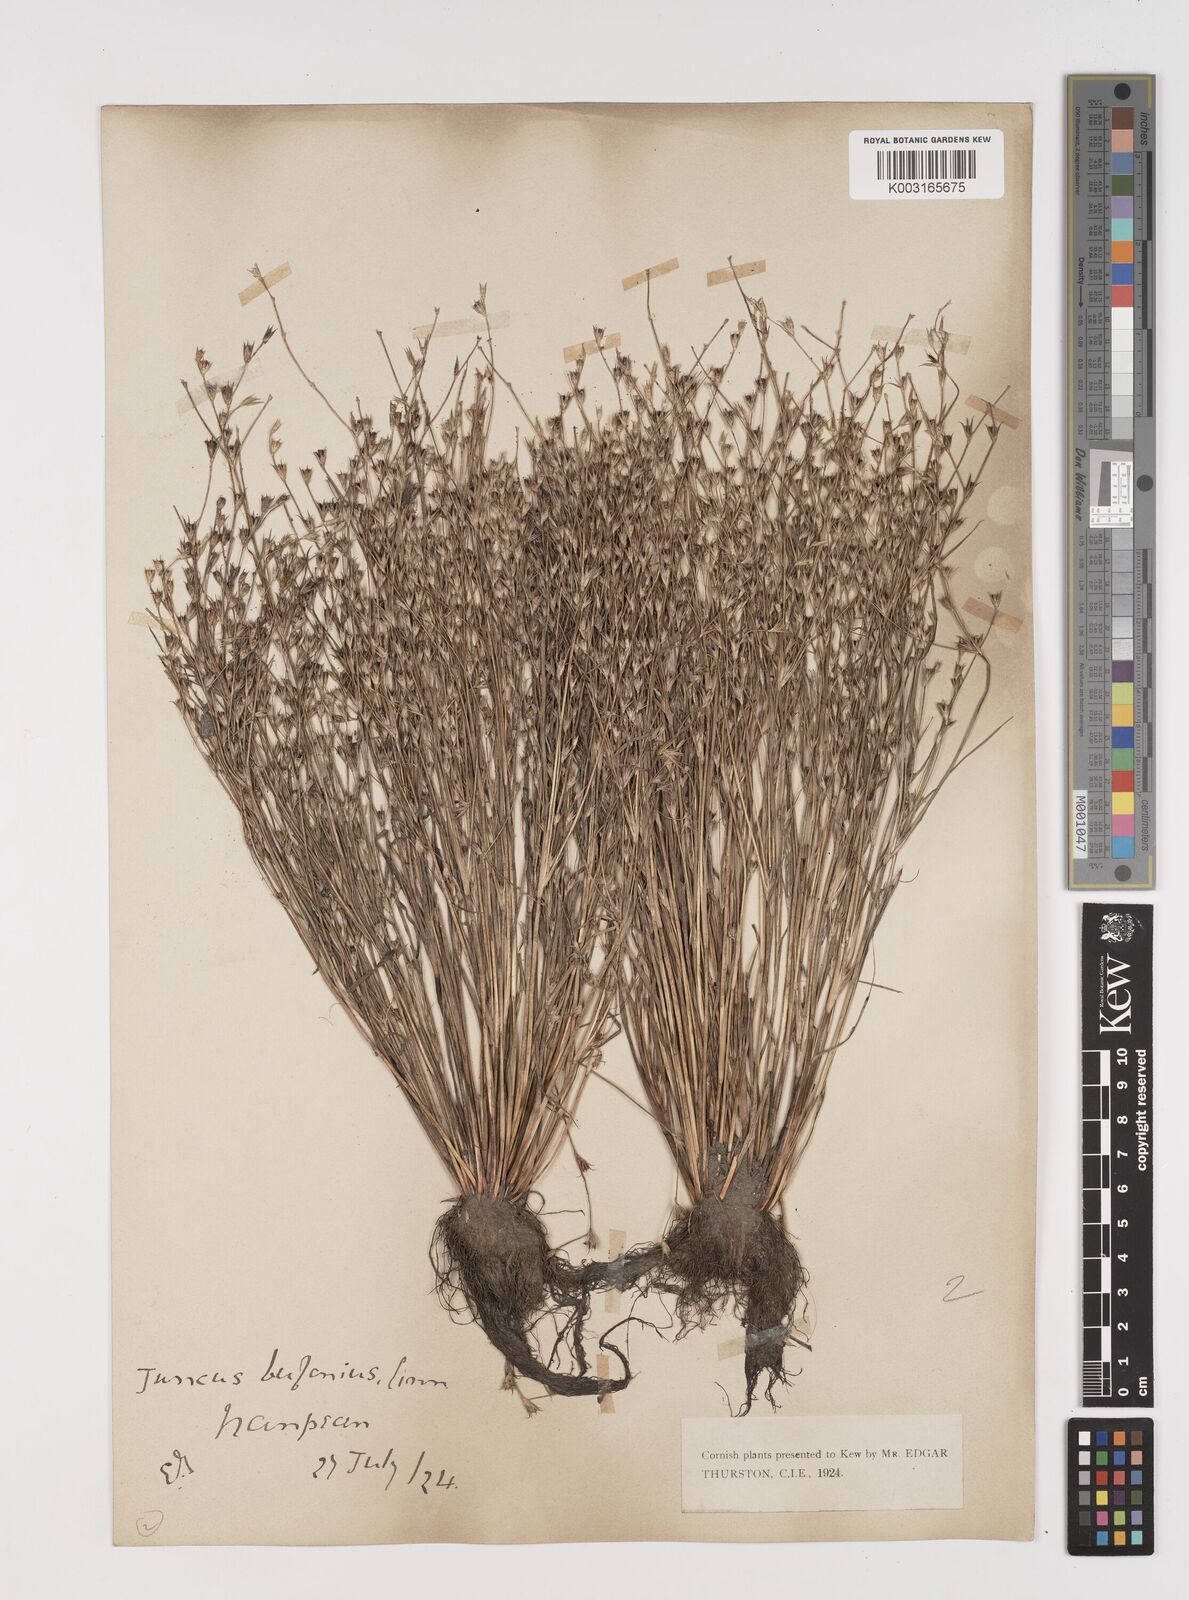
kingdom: Plantae
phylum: Tracheophyta
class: Liliopsida
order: Poales
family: Juncaceae
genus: Juncus
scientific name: Juncus bufonius
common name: Toad rush
